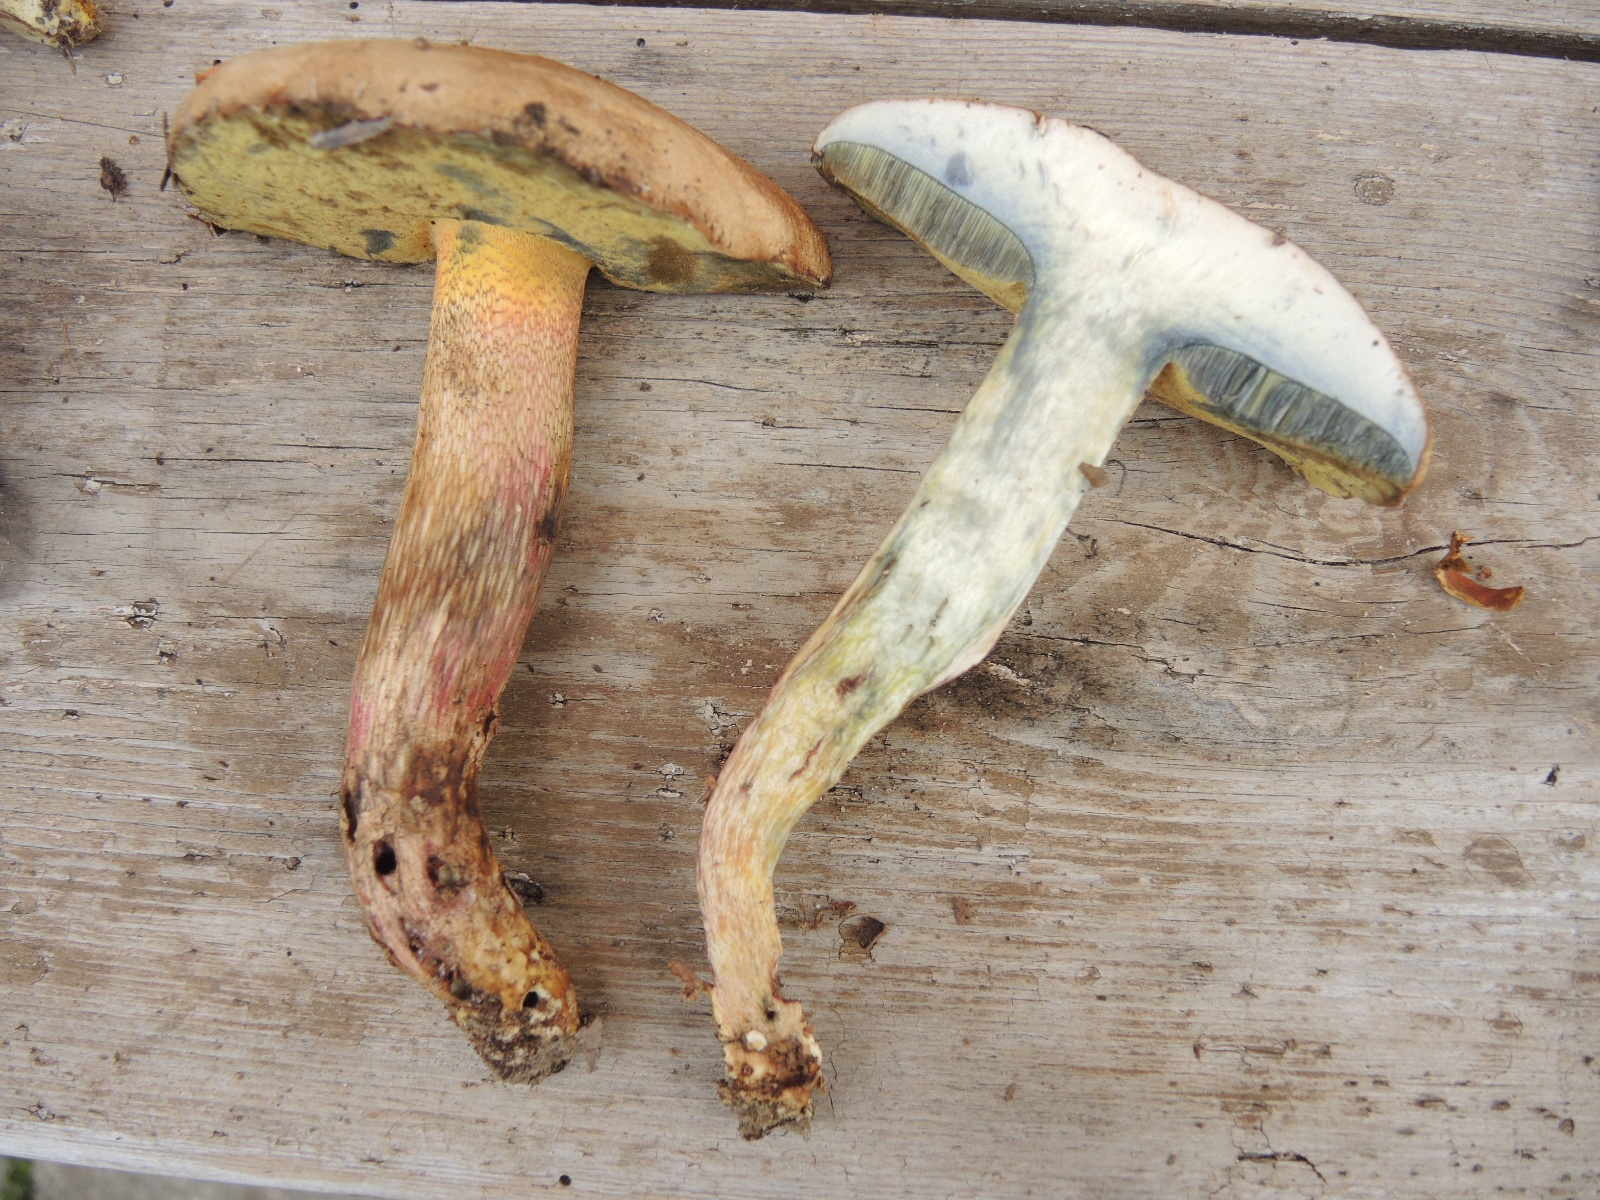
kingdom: Fungi
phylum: Basidiomycota
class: Agaricomycetes
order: Boletales
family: Boletaceae
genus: Caloboletus
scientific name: Caloboletus calopus
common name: skønfodet rørhat
